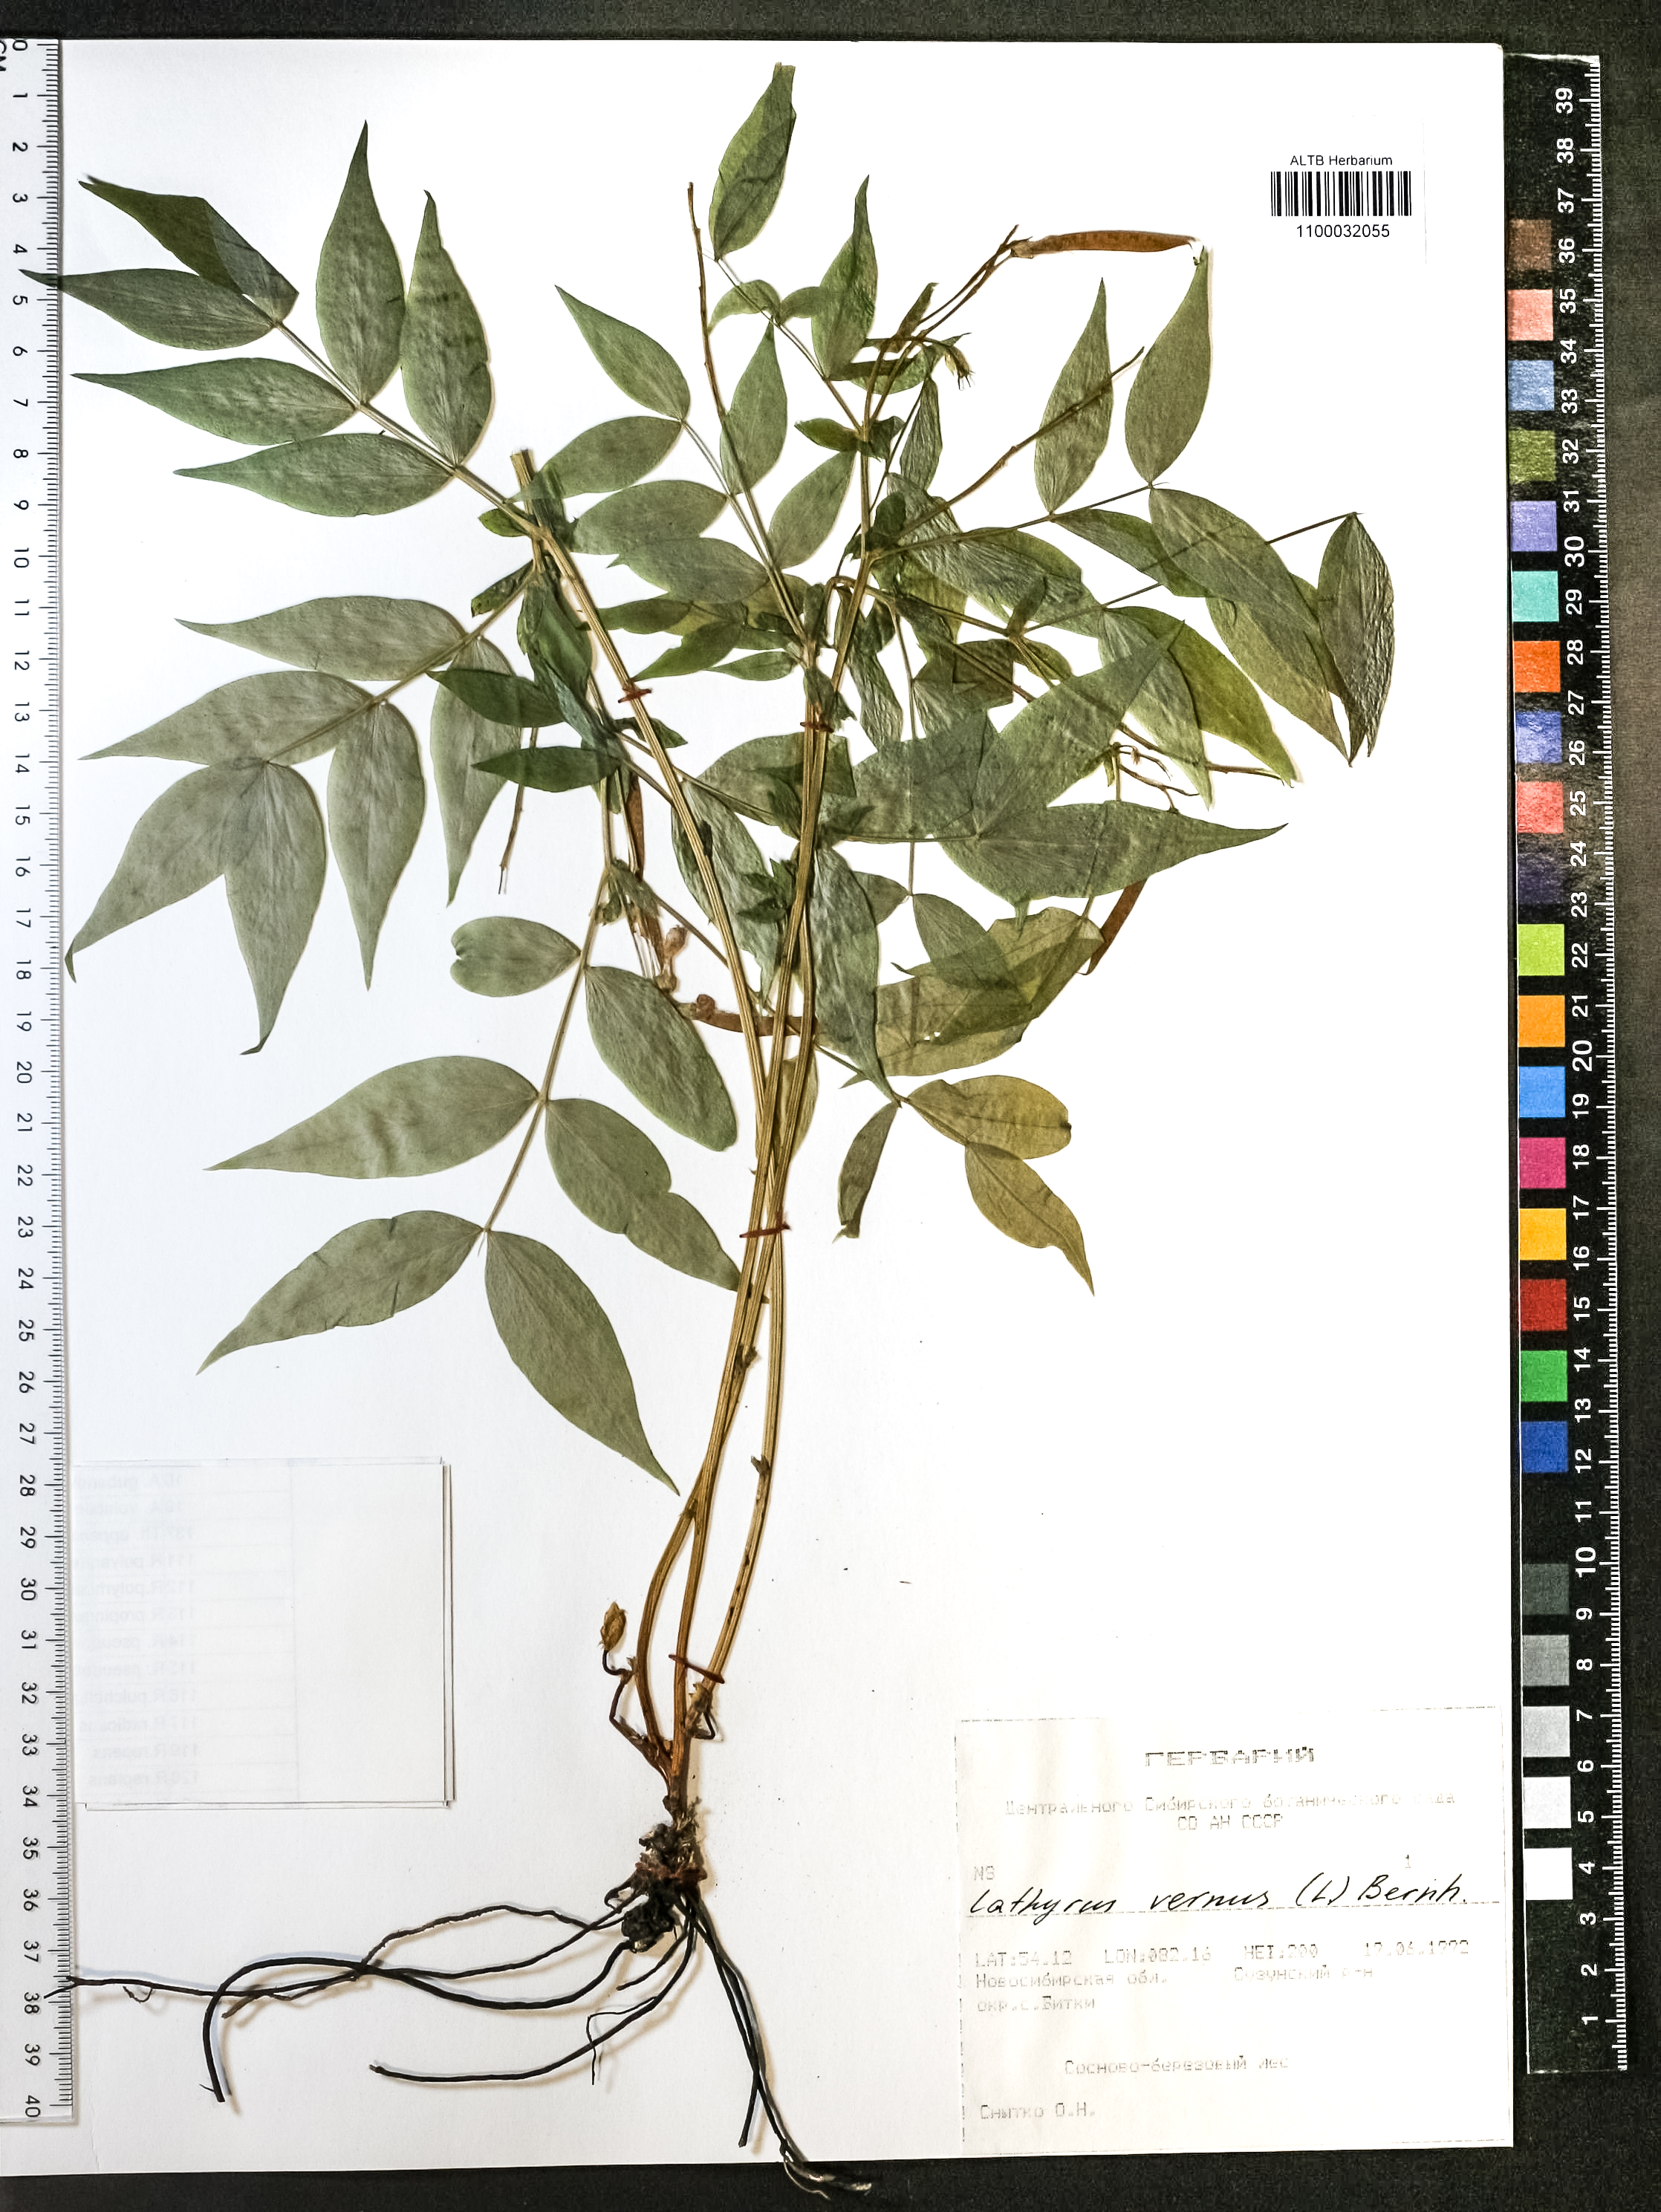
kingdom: Plantae
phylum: Tracheophyta
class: Magnoliopsida
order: Fabales
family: Fabaceae
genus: Lathyrus
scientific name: Lathyrus vernus
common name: Spring pea
